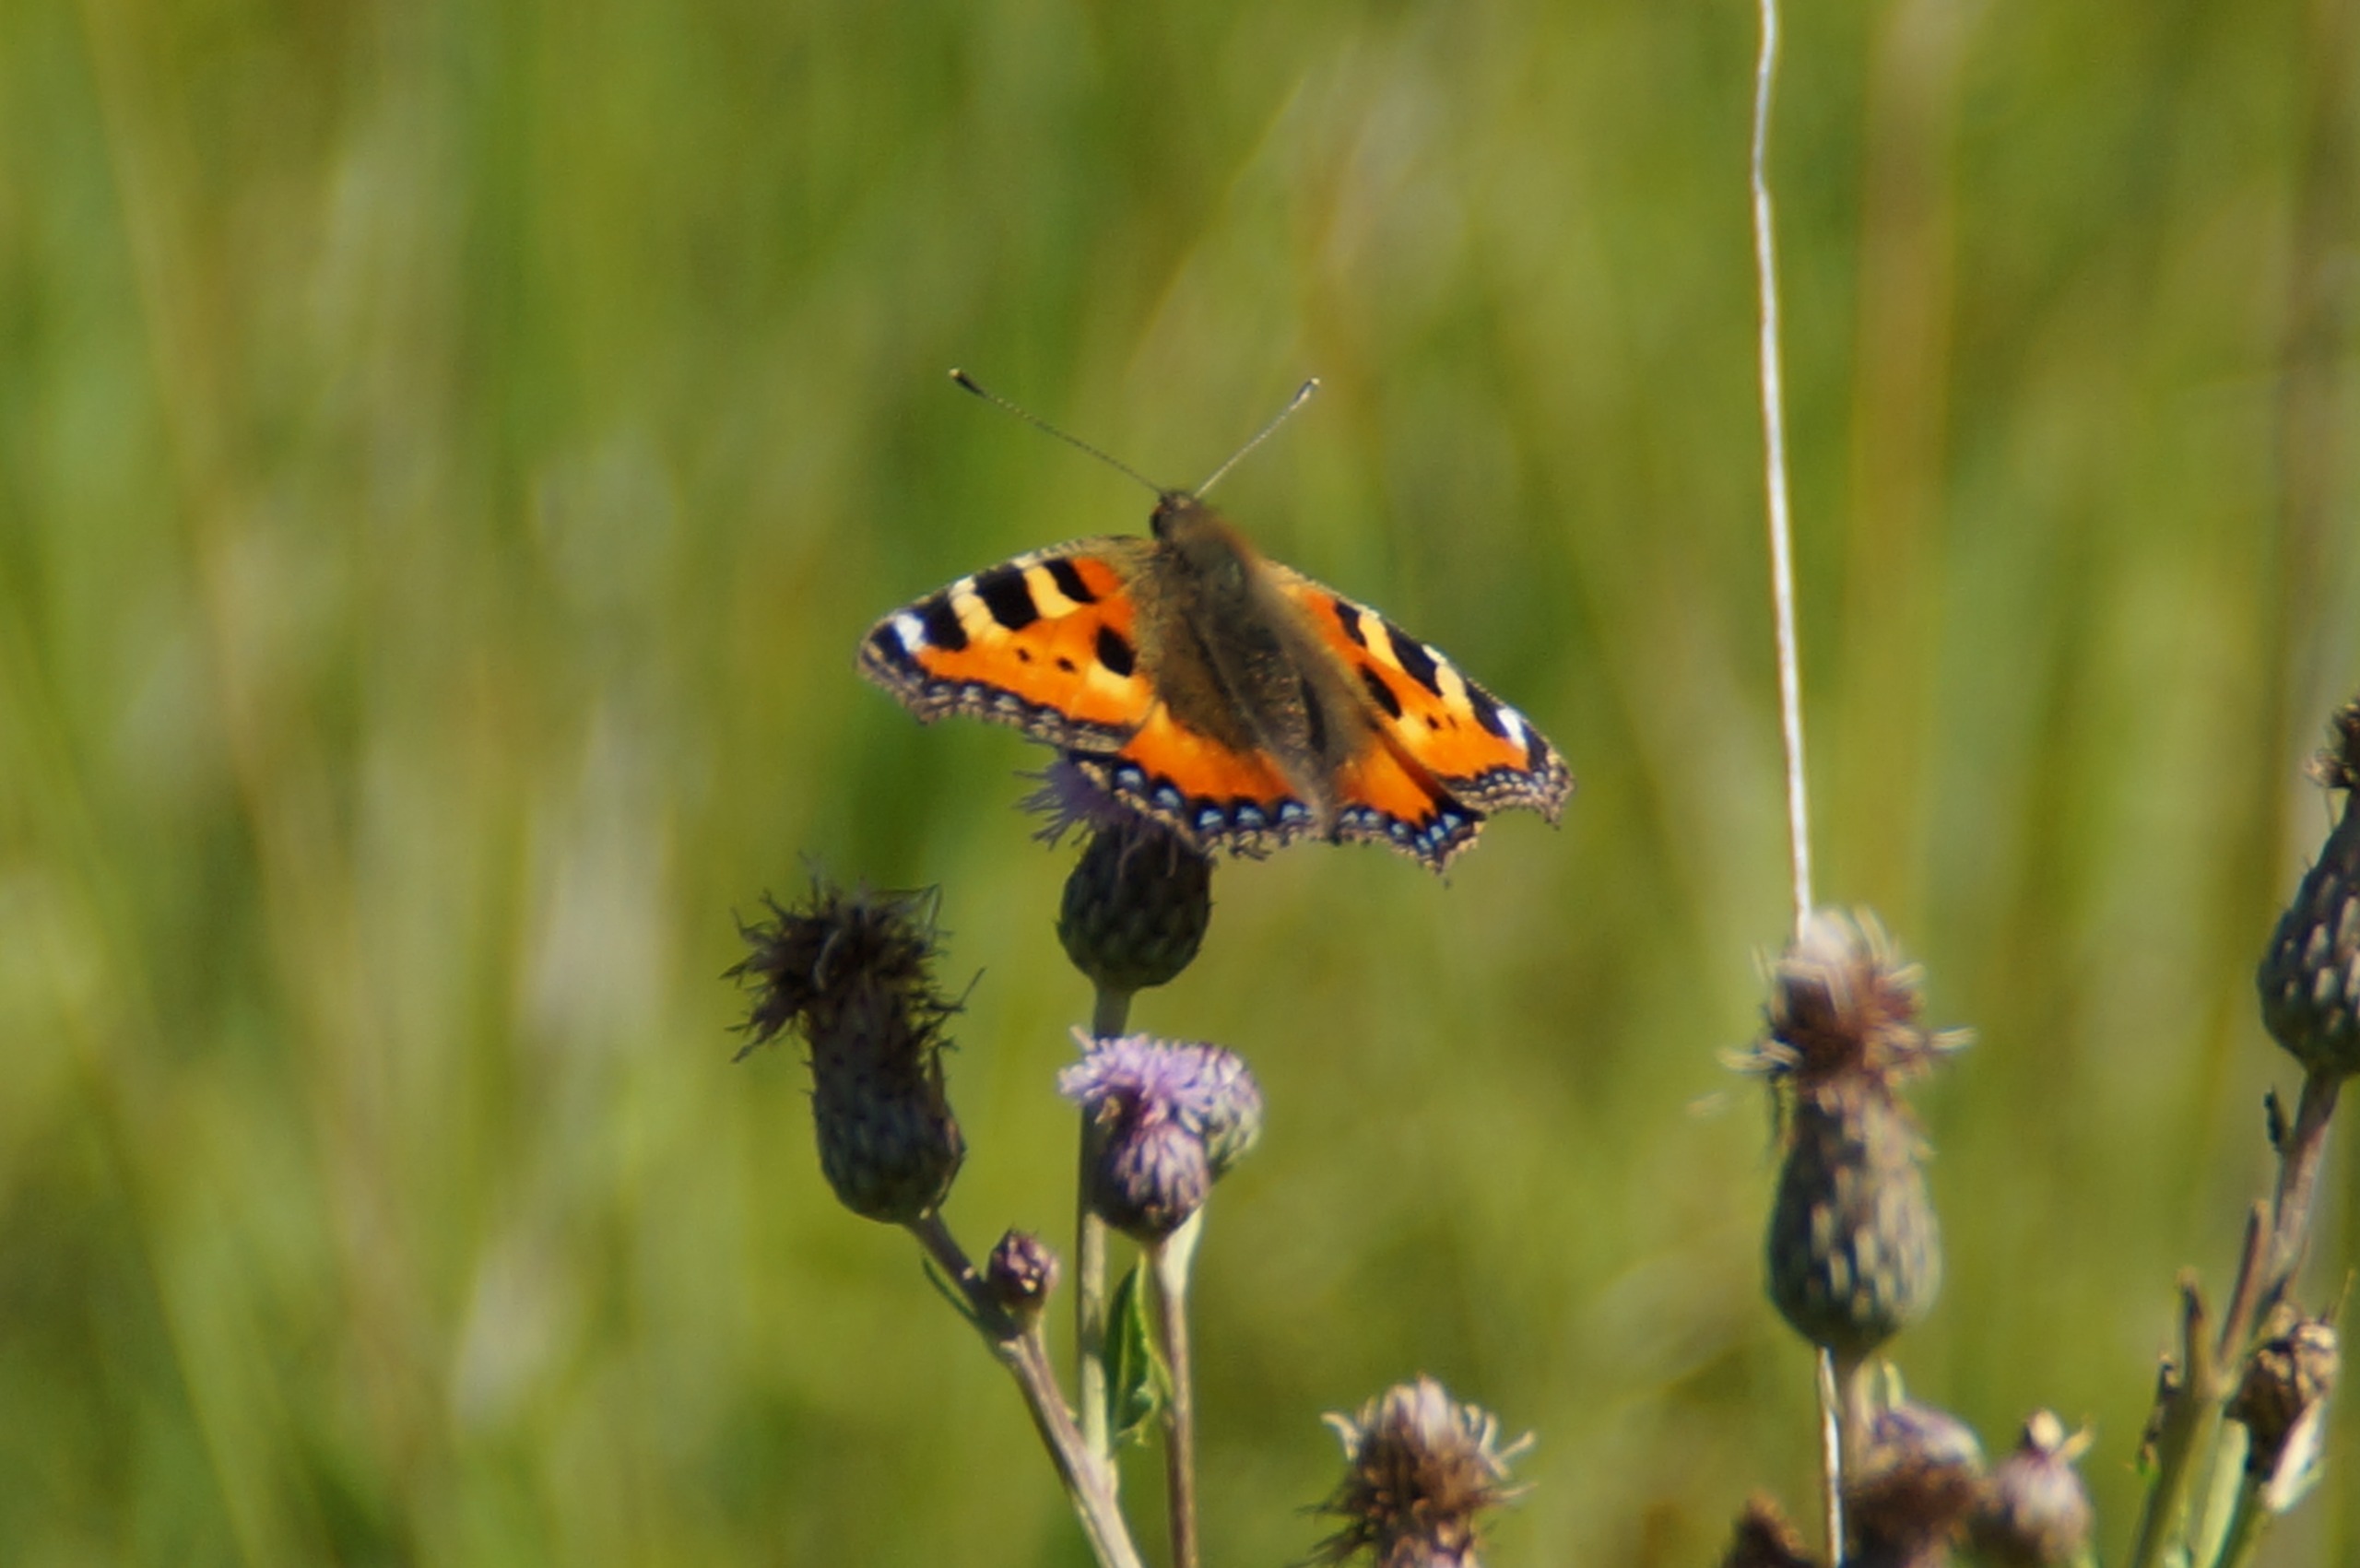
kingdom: Animalia
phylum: Arthropoda
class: Insecta
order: Lepidoptera
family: Nymphalidae
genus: Aglais
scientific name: Aglais urticae
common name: Nældens takvinge
